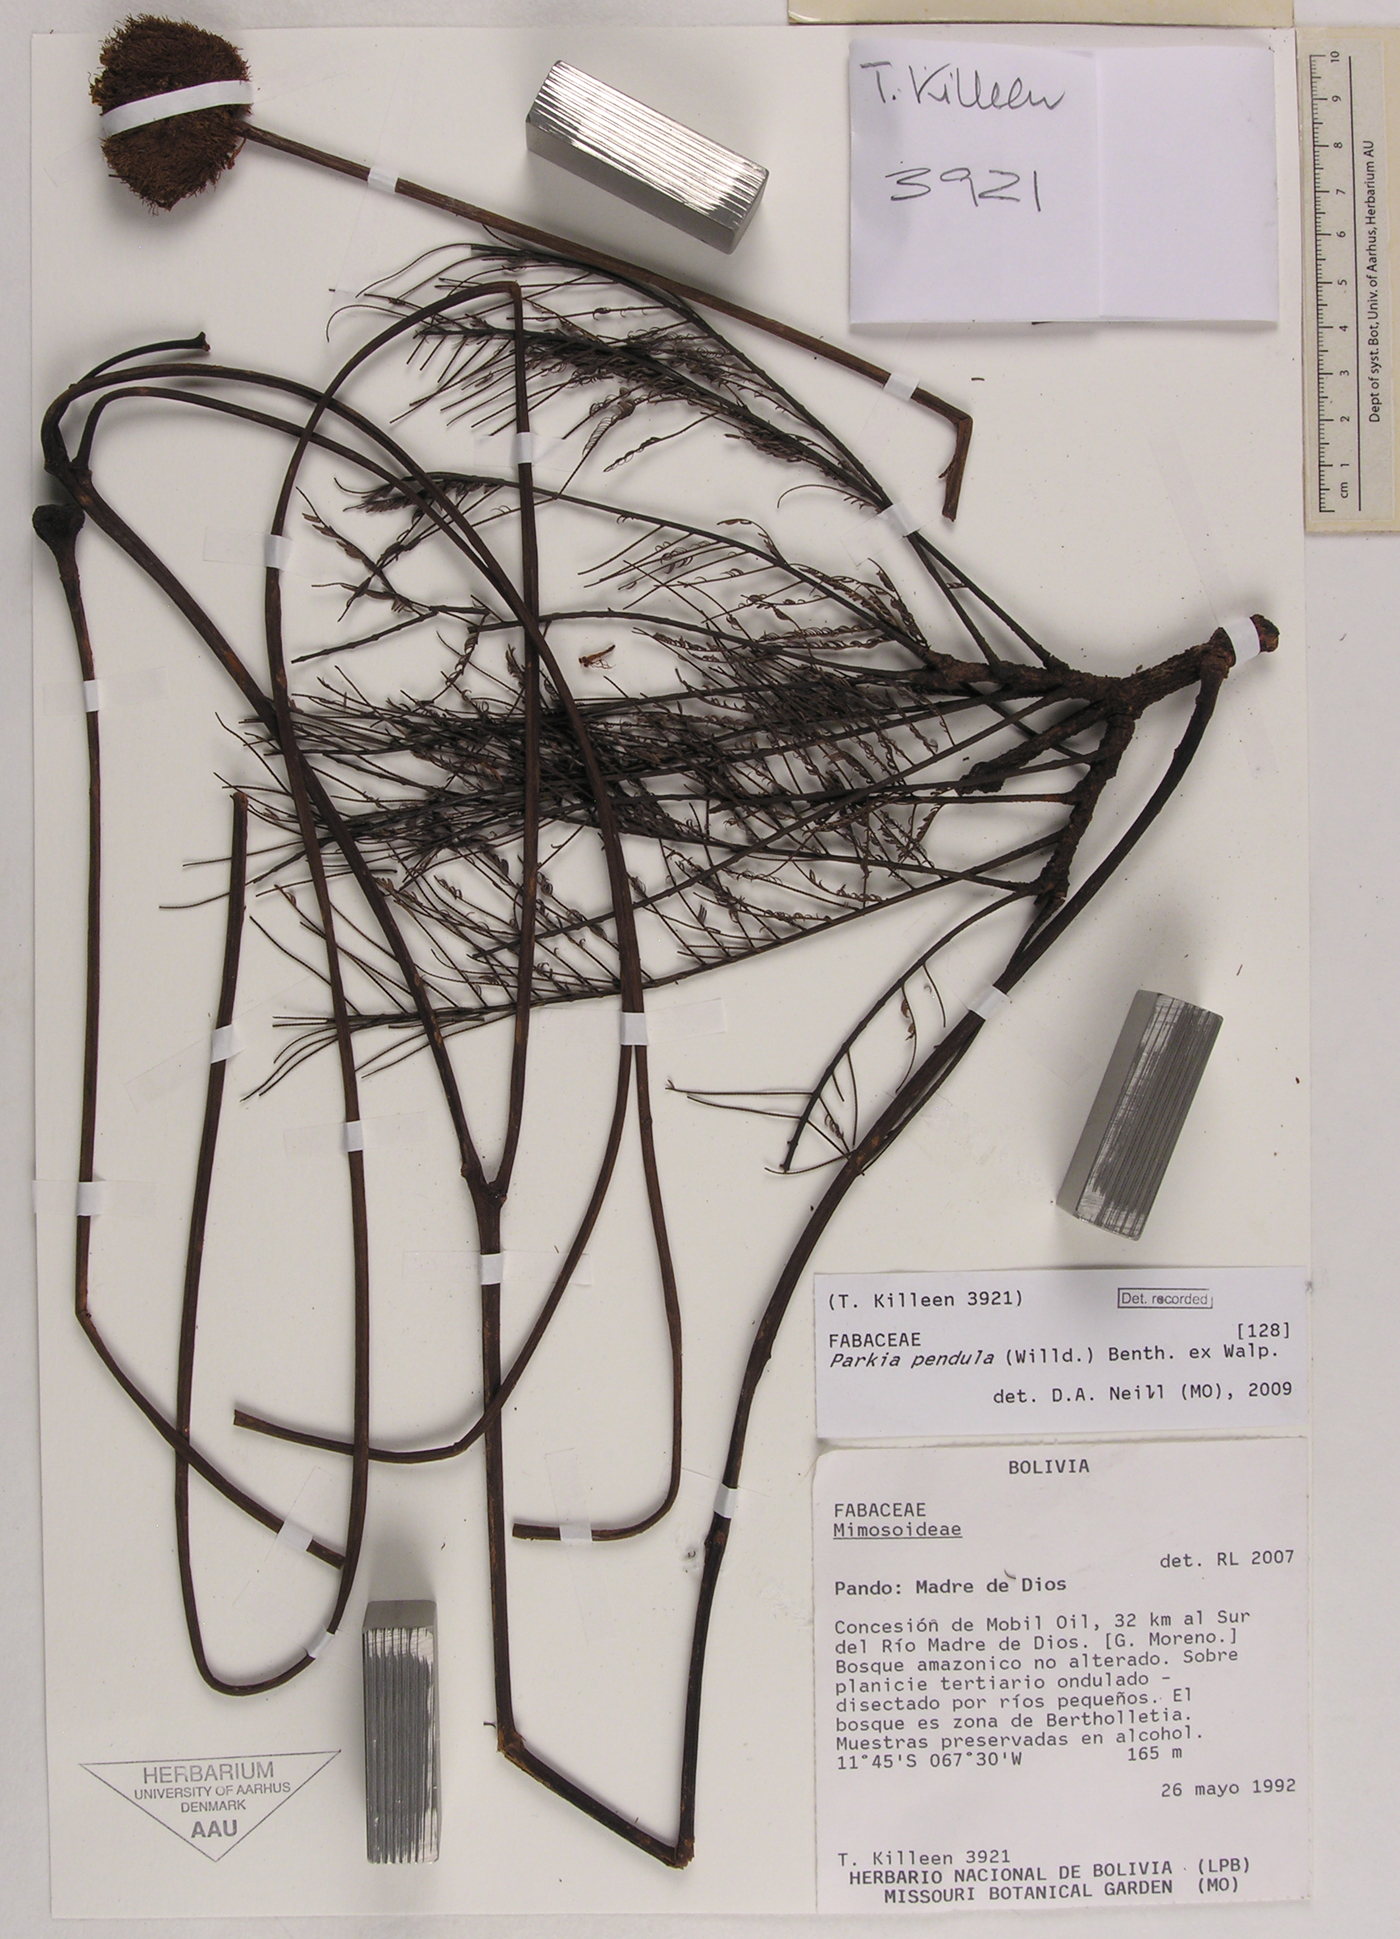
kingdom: Plantae
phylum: Tracheophyta
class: Magnoliopsida
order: Fabales
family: Fabaceae
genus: Parkia
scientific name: Parkia pendula
